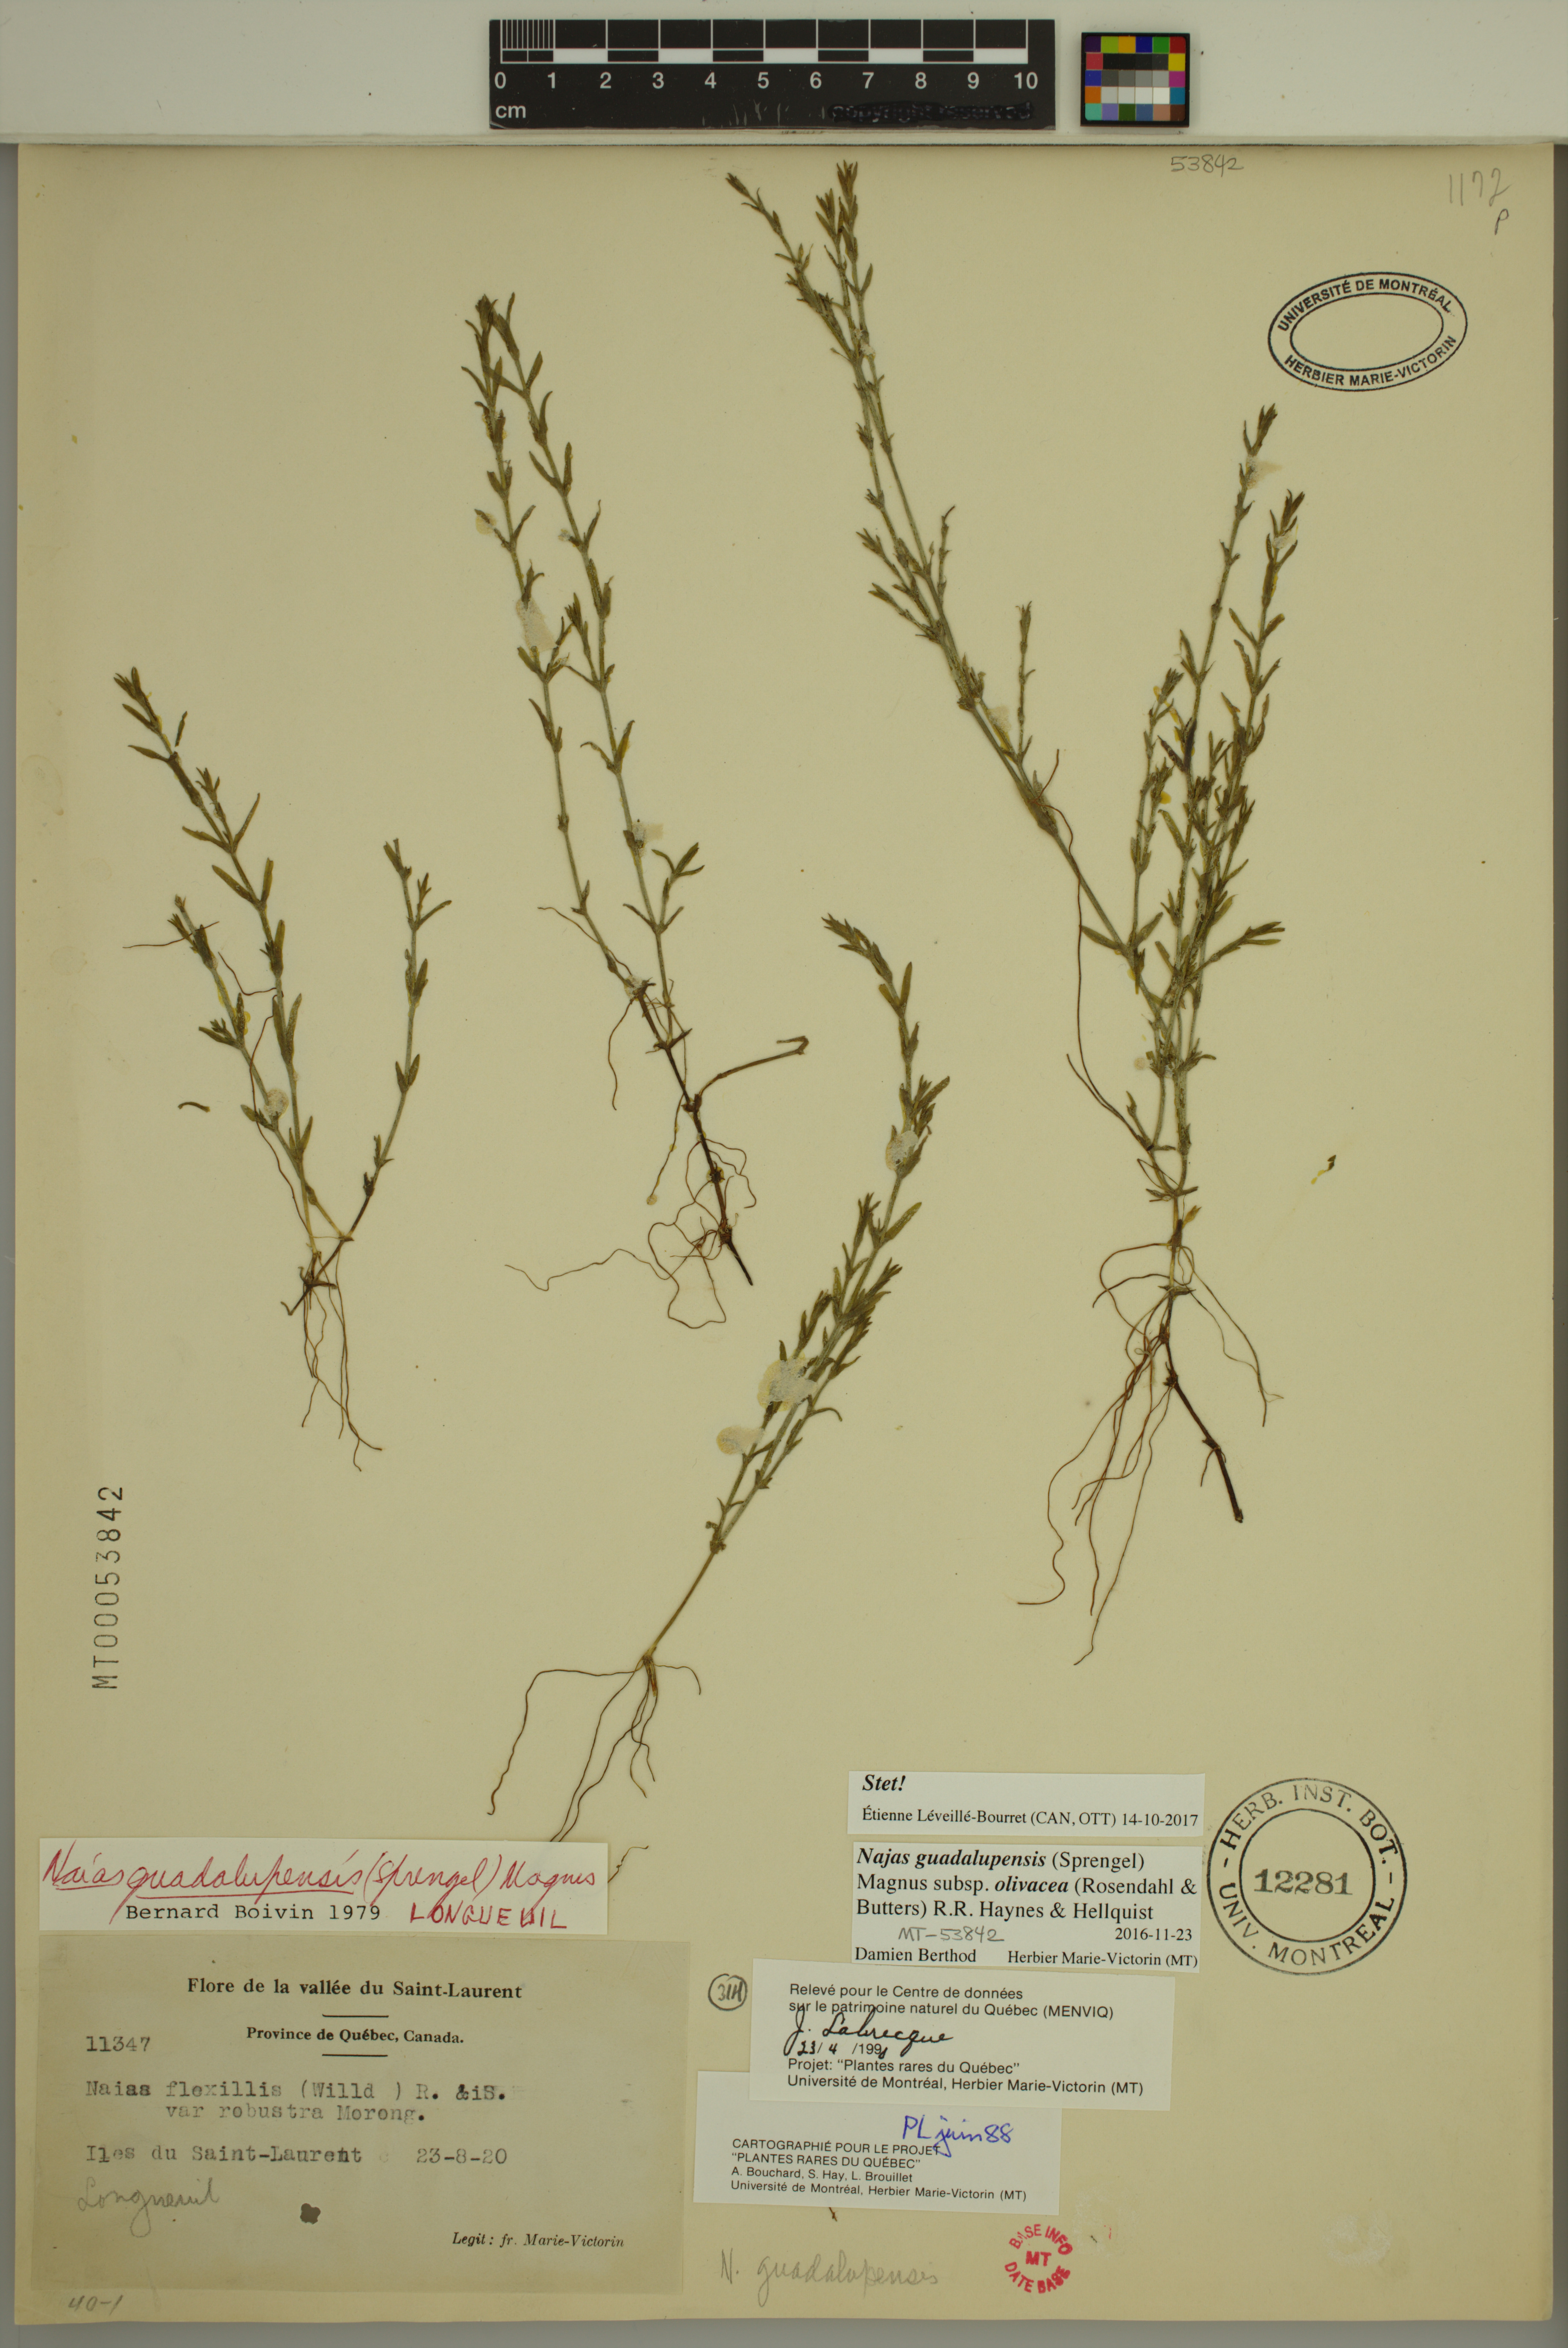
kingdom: Plantae
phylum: Tracheophyta
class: Liliopsida
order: Alismatales
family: Hydrocharitaceae
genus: Najas
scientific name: Najas guadalupensis
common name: Southern naiad
